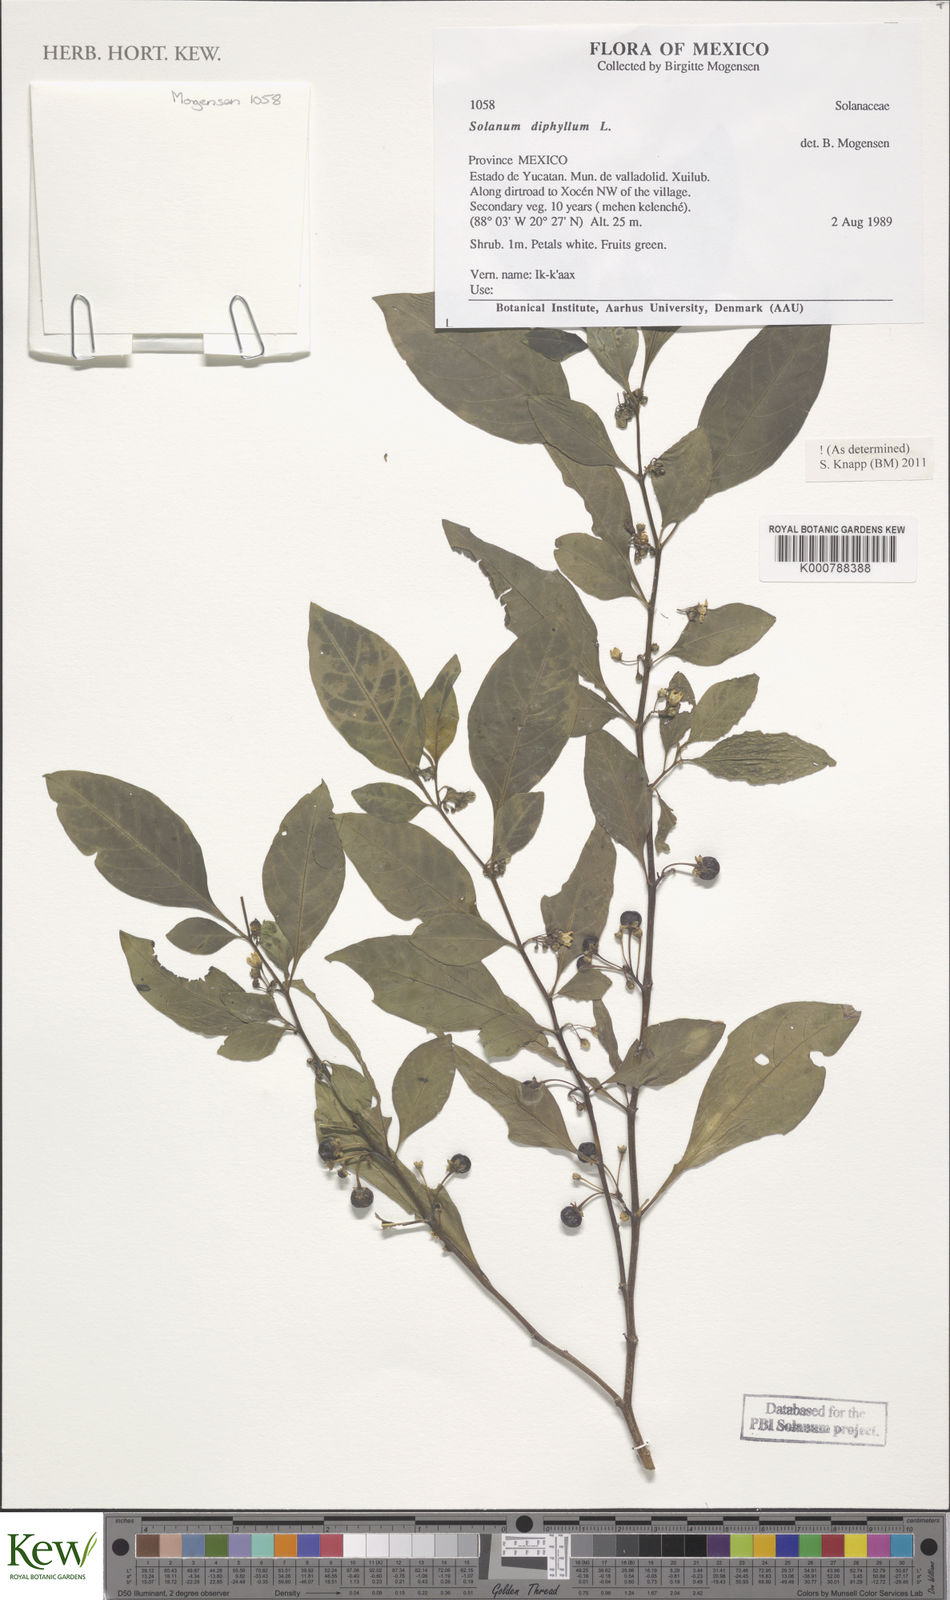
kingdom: Plantae
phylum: Tracheophyta
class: Magnoliopsida
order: Solanales
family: Solanaceae
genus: Solanum
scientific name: Solanum nudum
